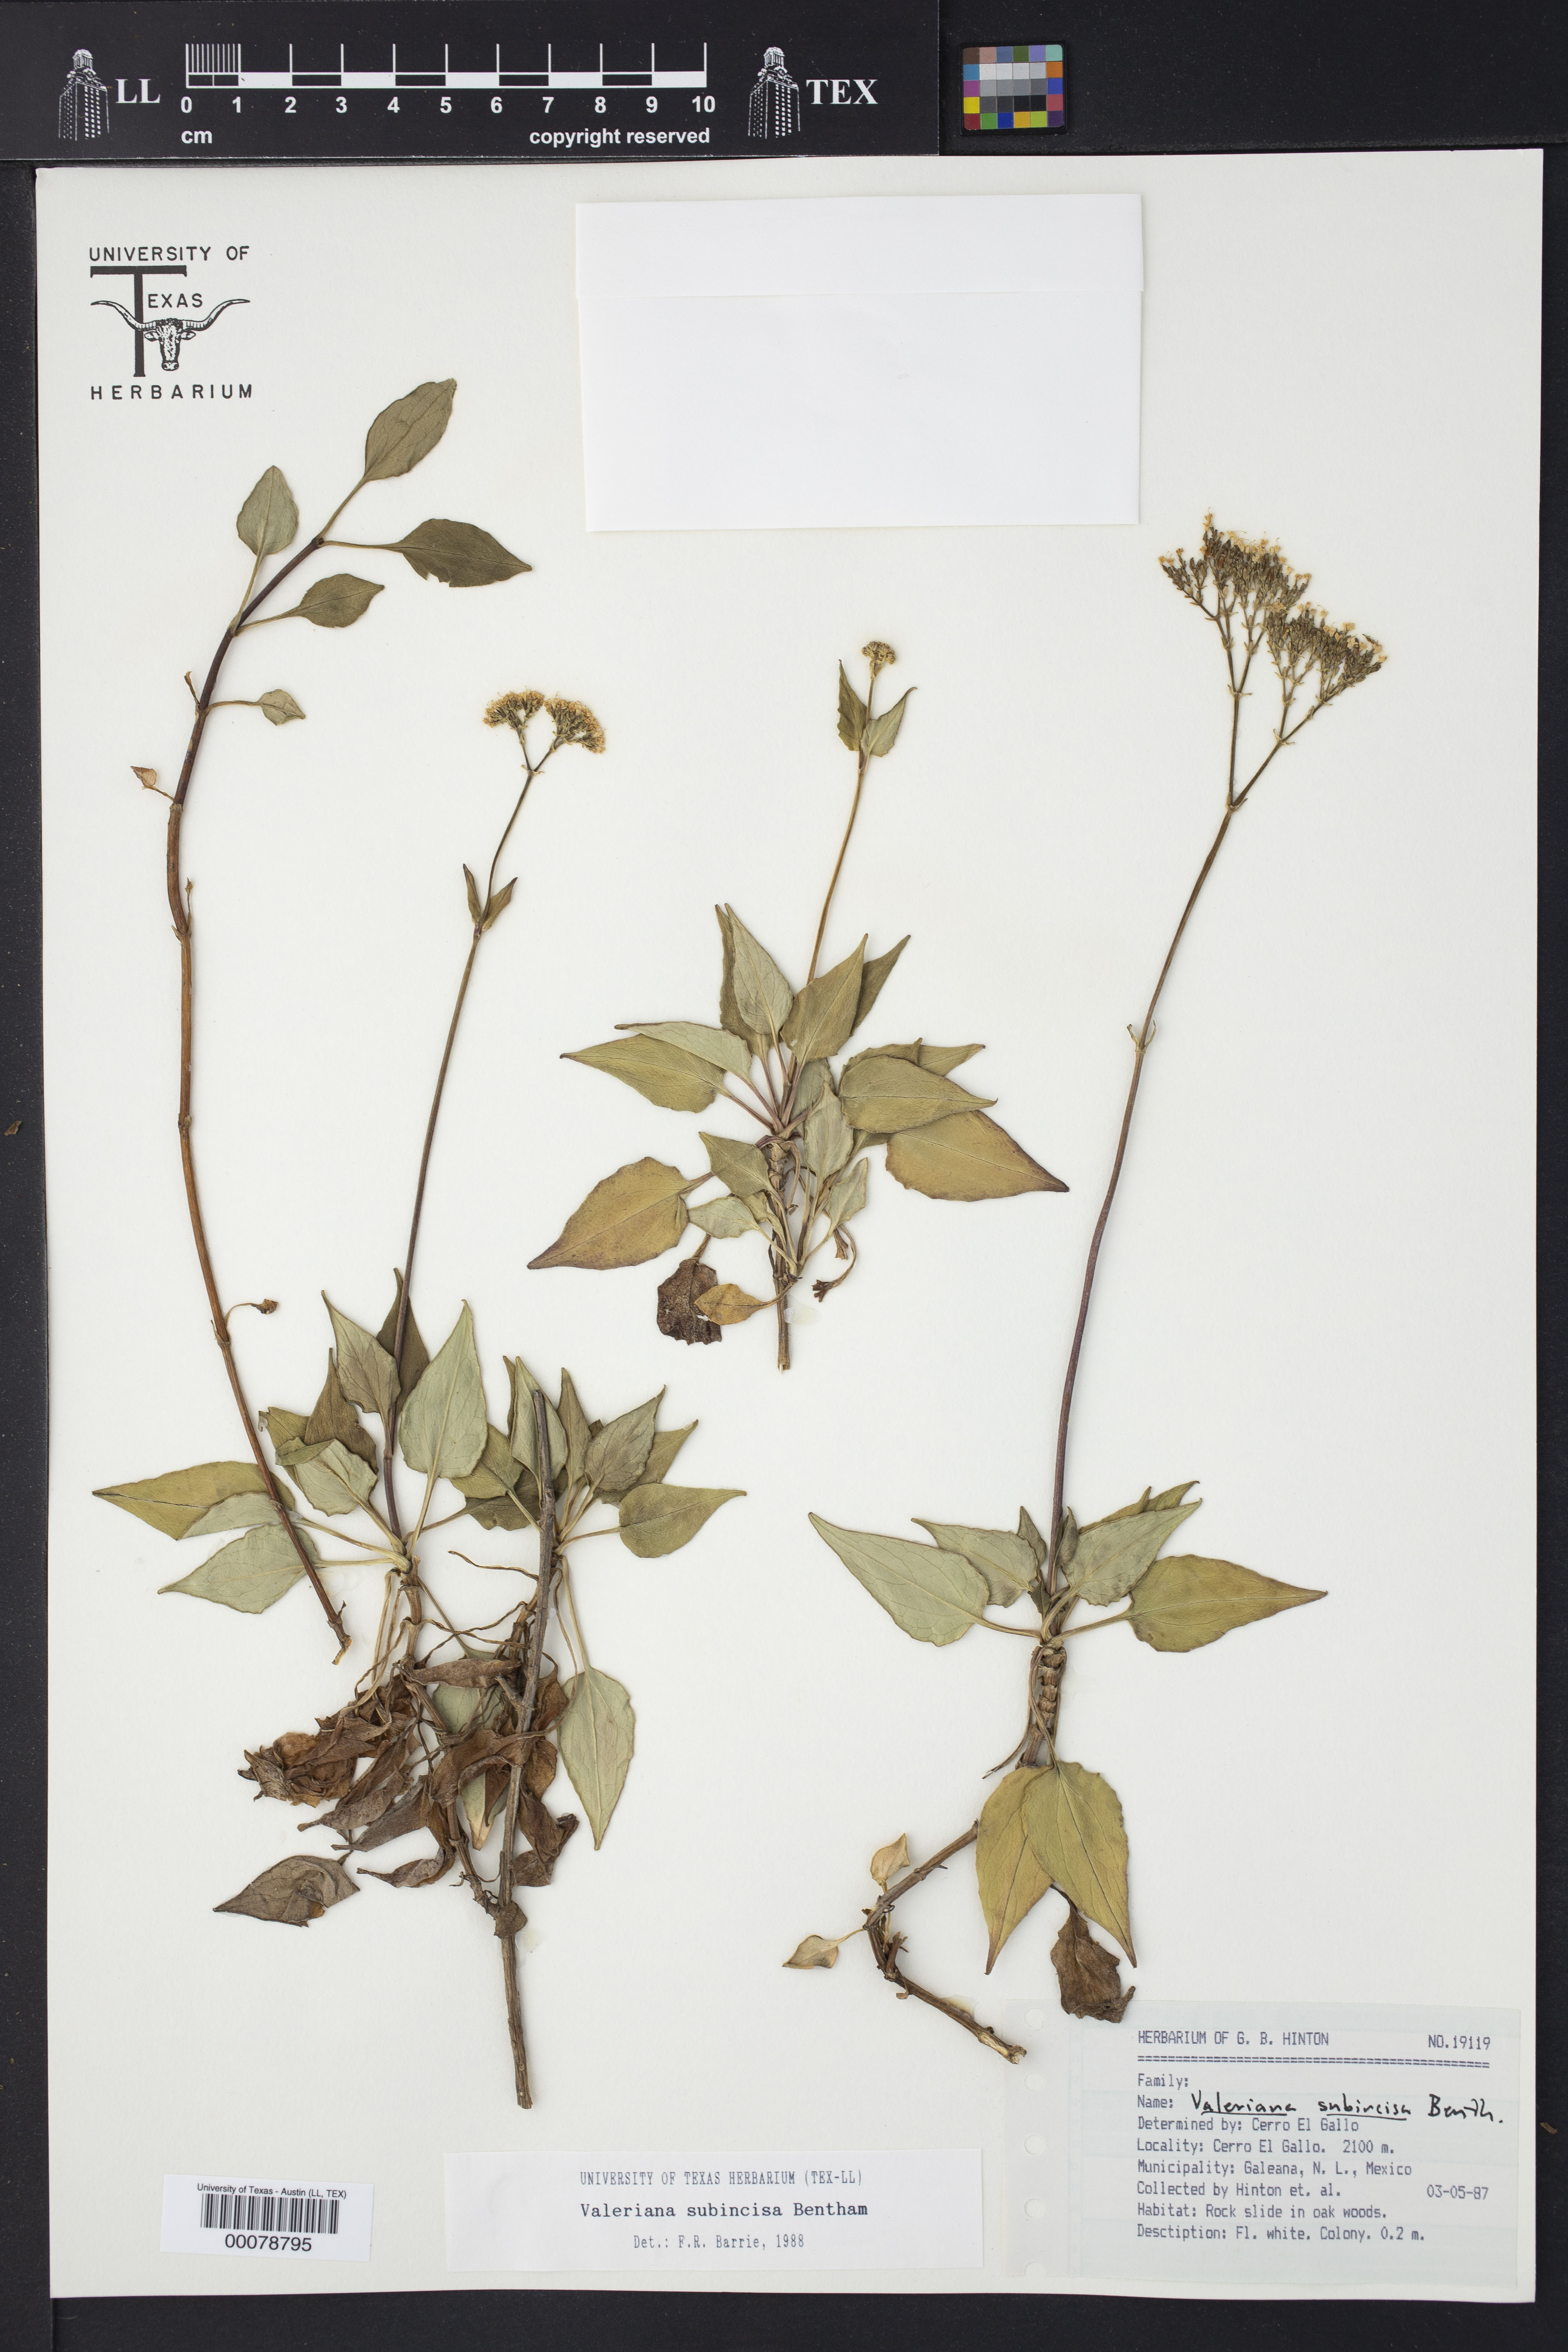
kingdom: Plantae
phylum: Tracheophyta
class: Magnoliopsida
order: Dipsacales
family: Caprifoliaceae
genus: Valeriana
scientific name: Valeriana subincisa
